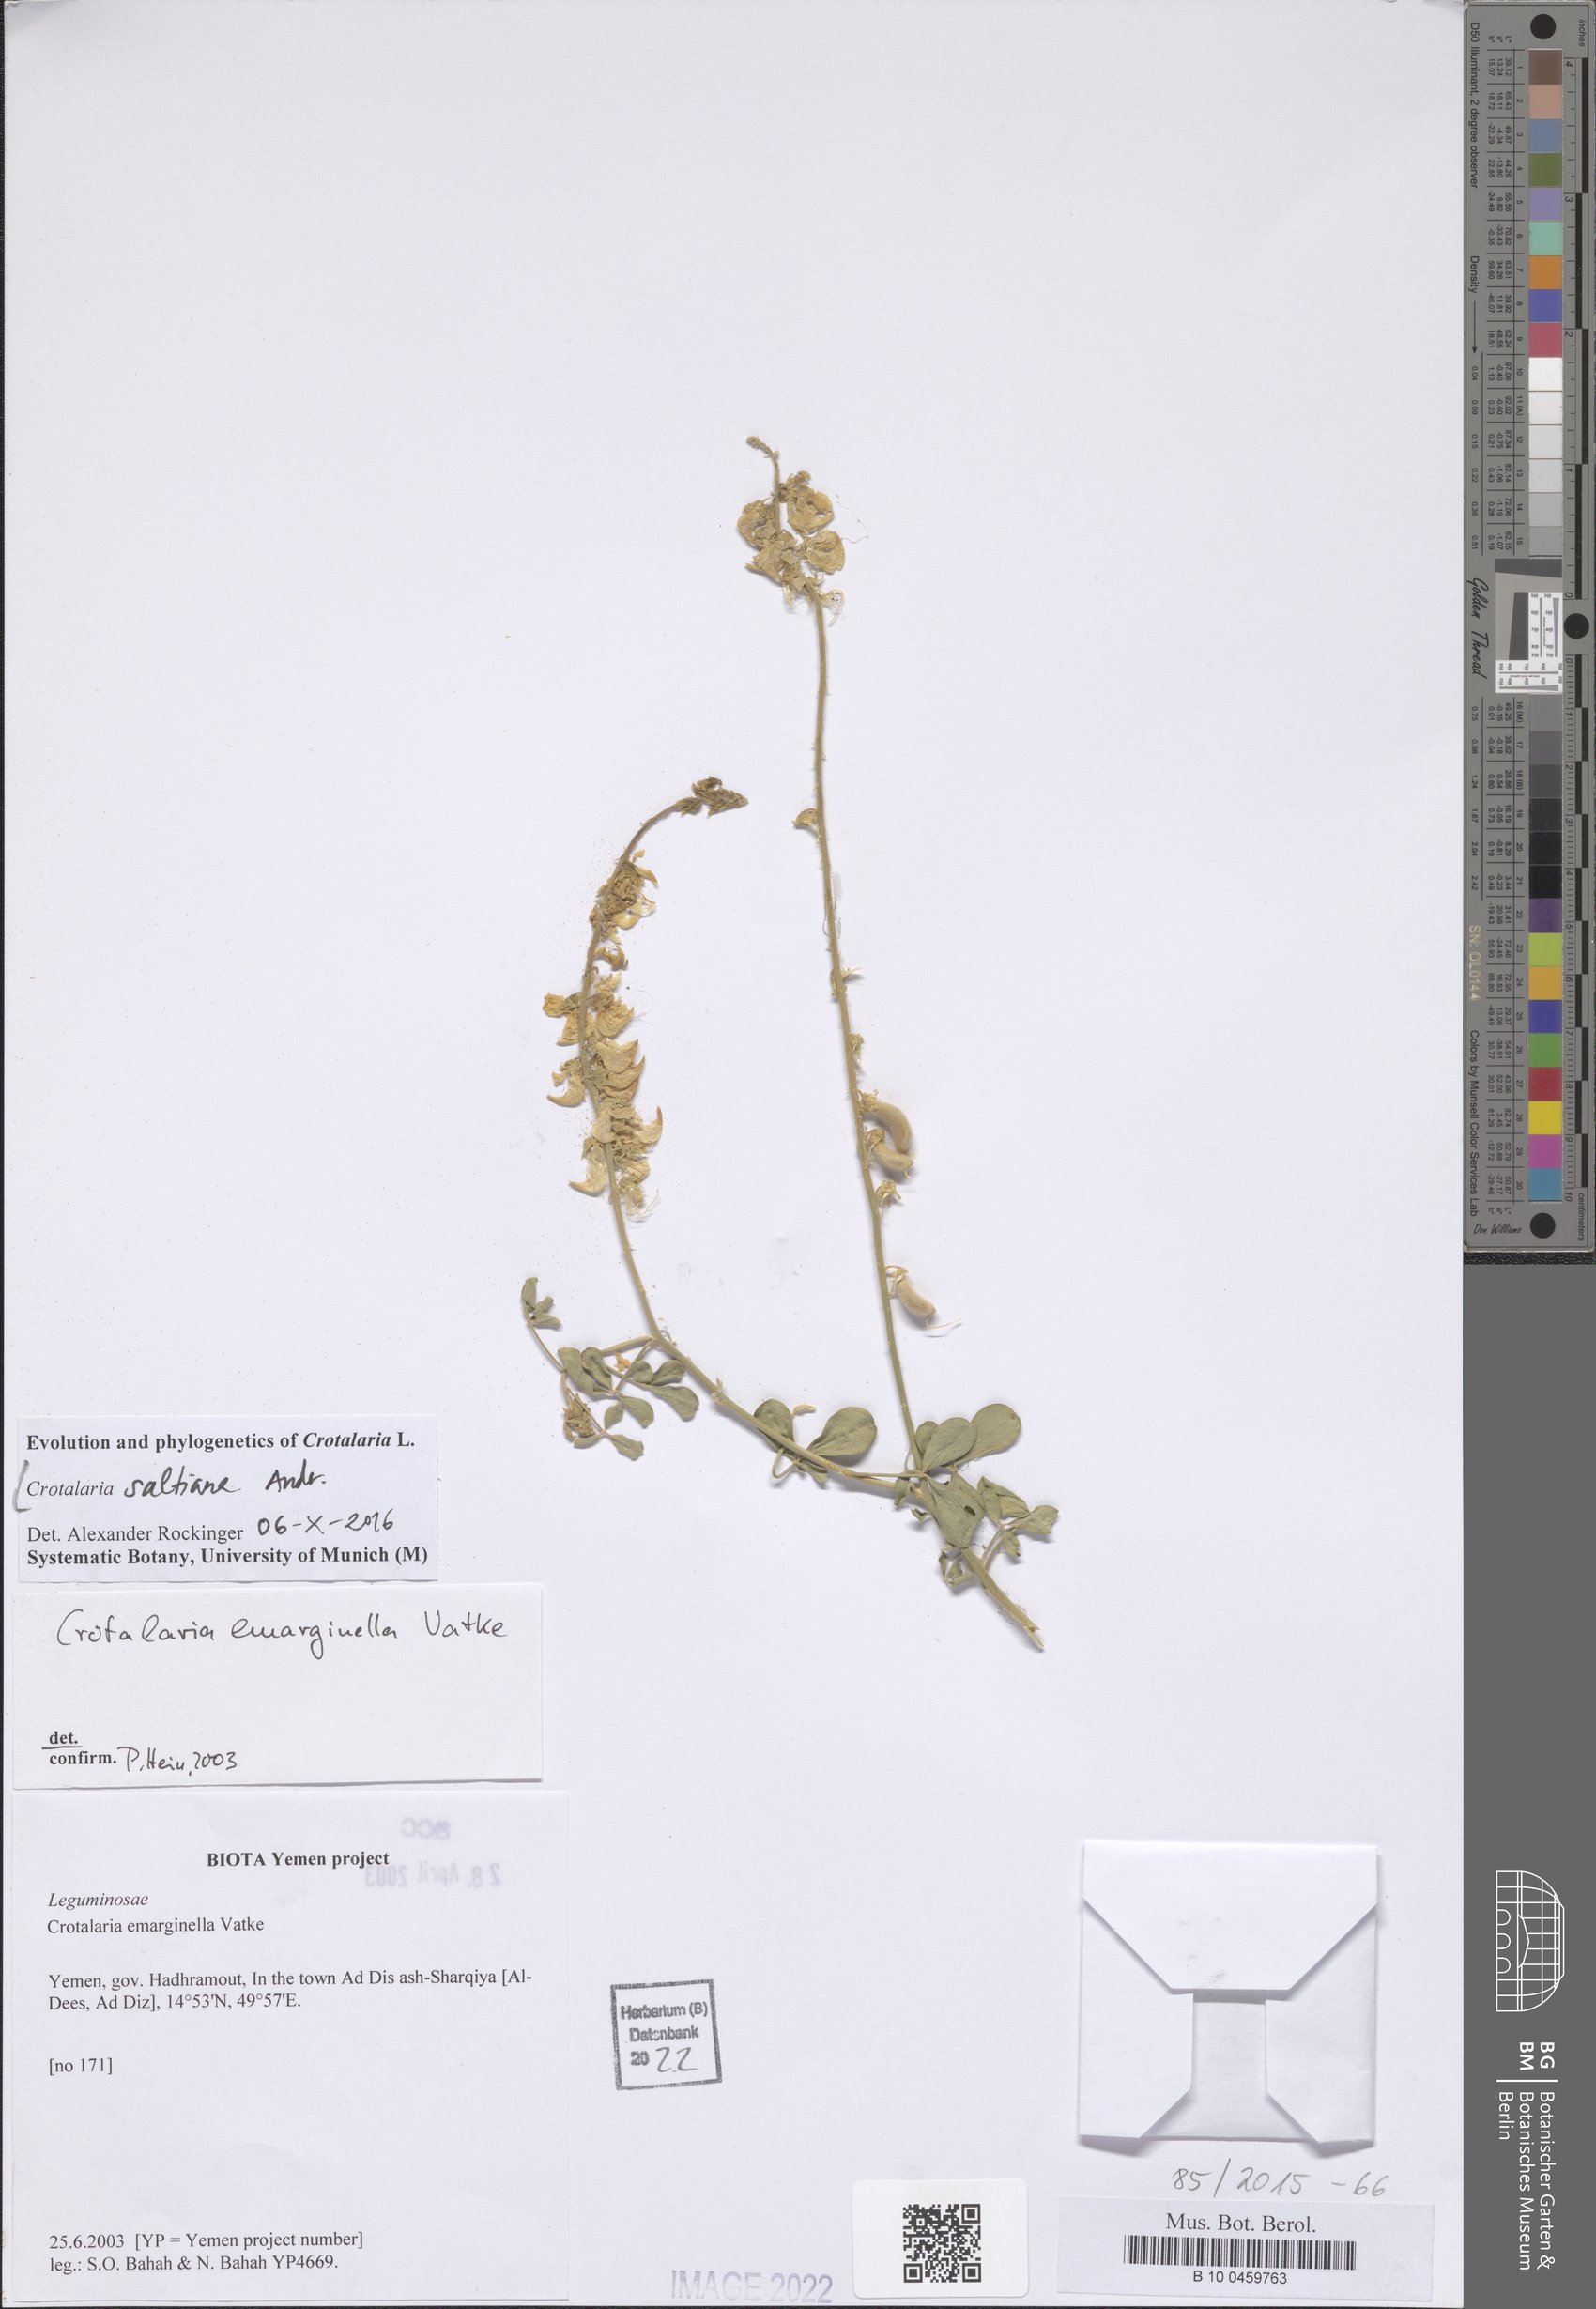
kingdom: Plantae
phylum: Tracheophyta
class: Magnoliopsida
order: Fabales
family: Fabaceae
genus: Crotalaria
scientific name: Crotalaria saltiana
